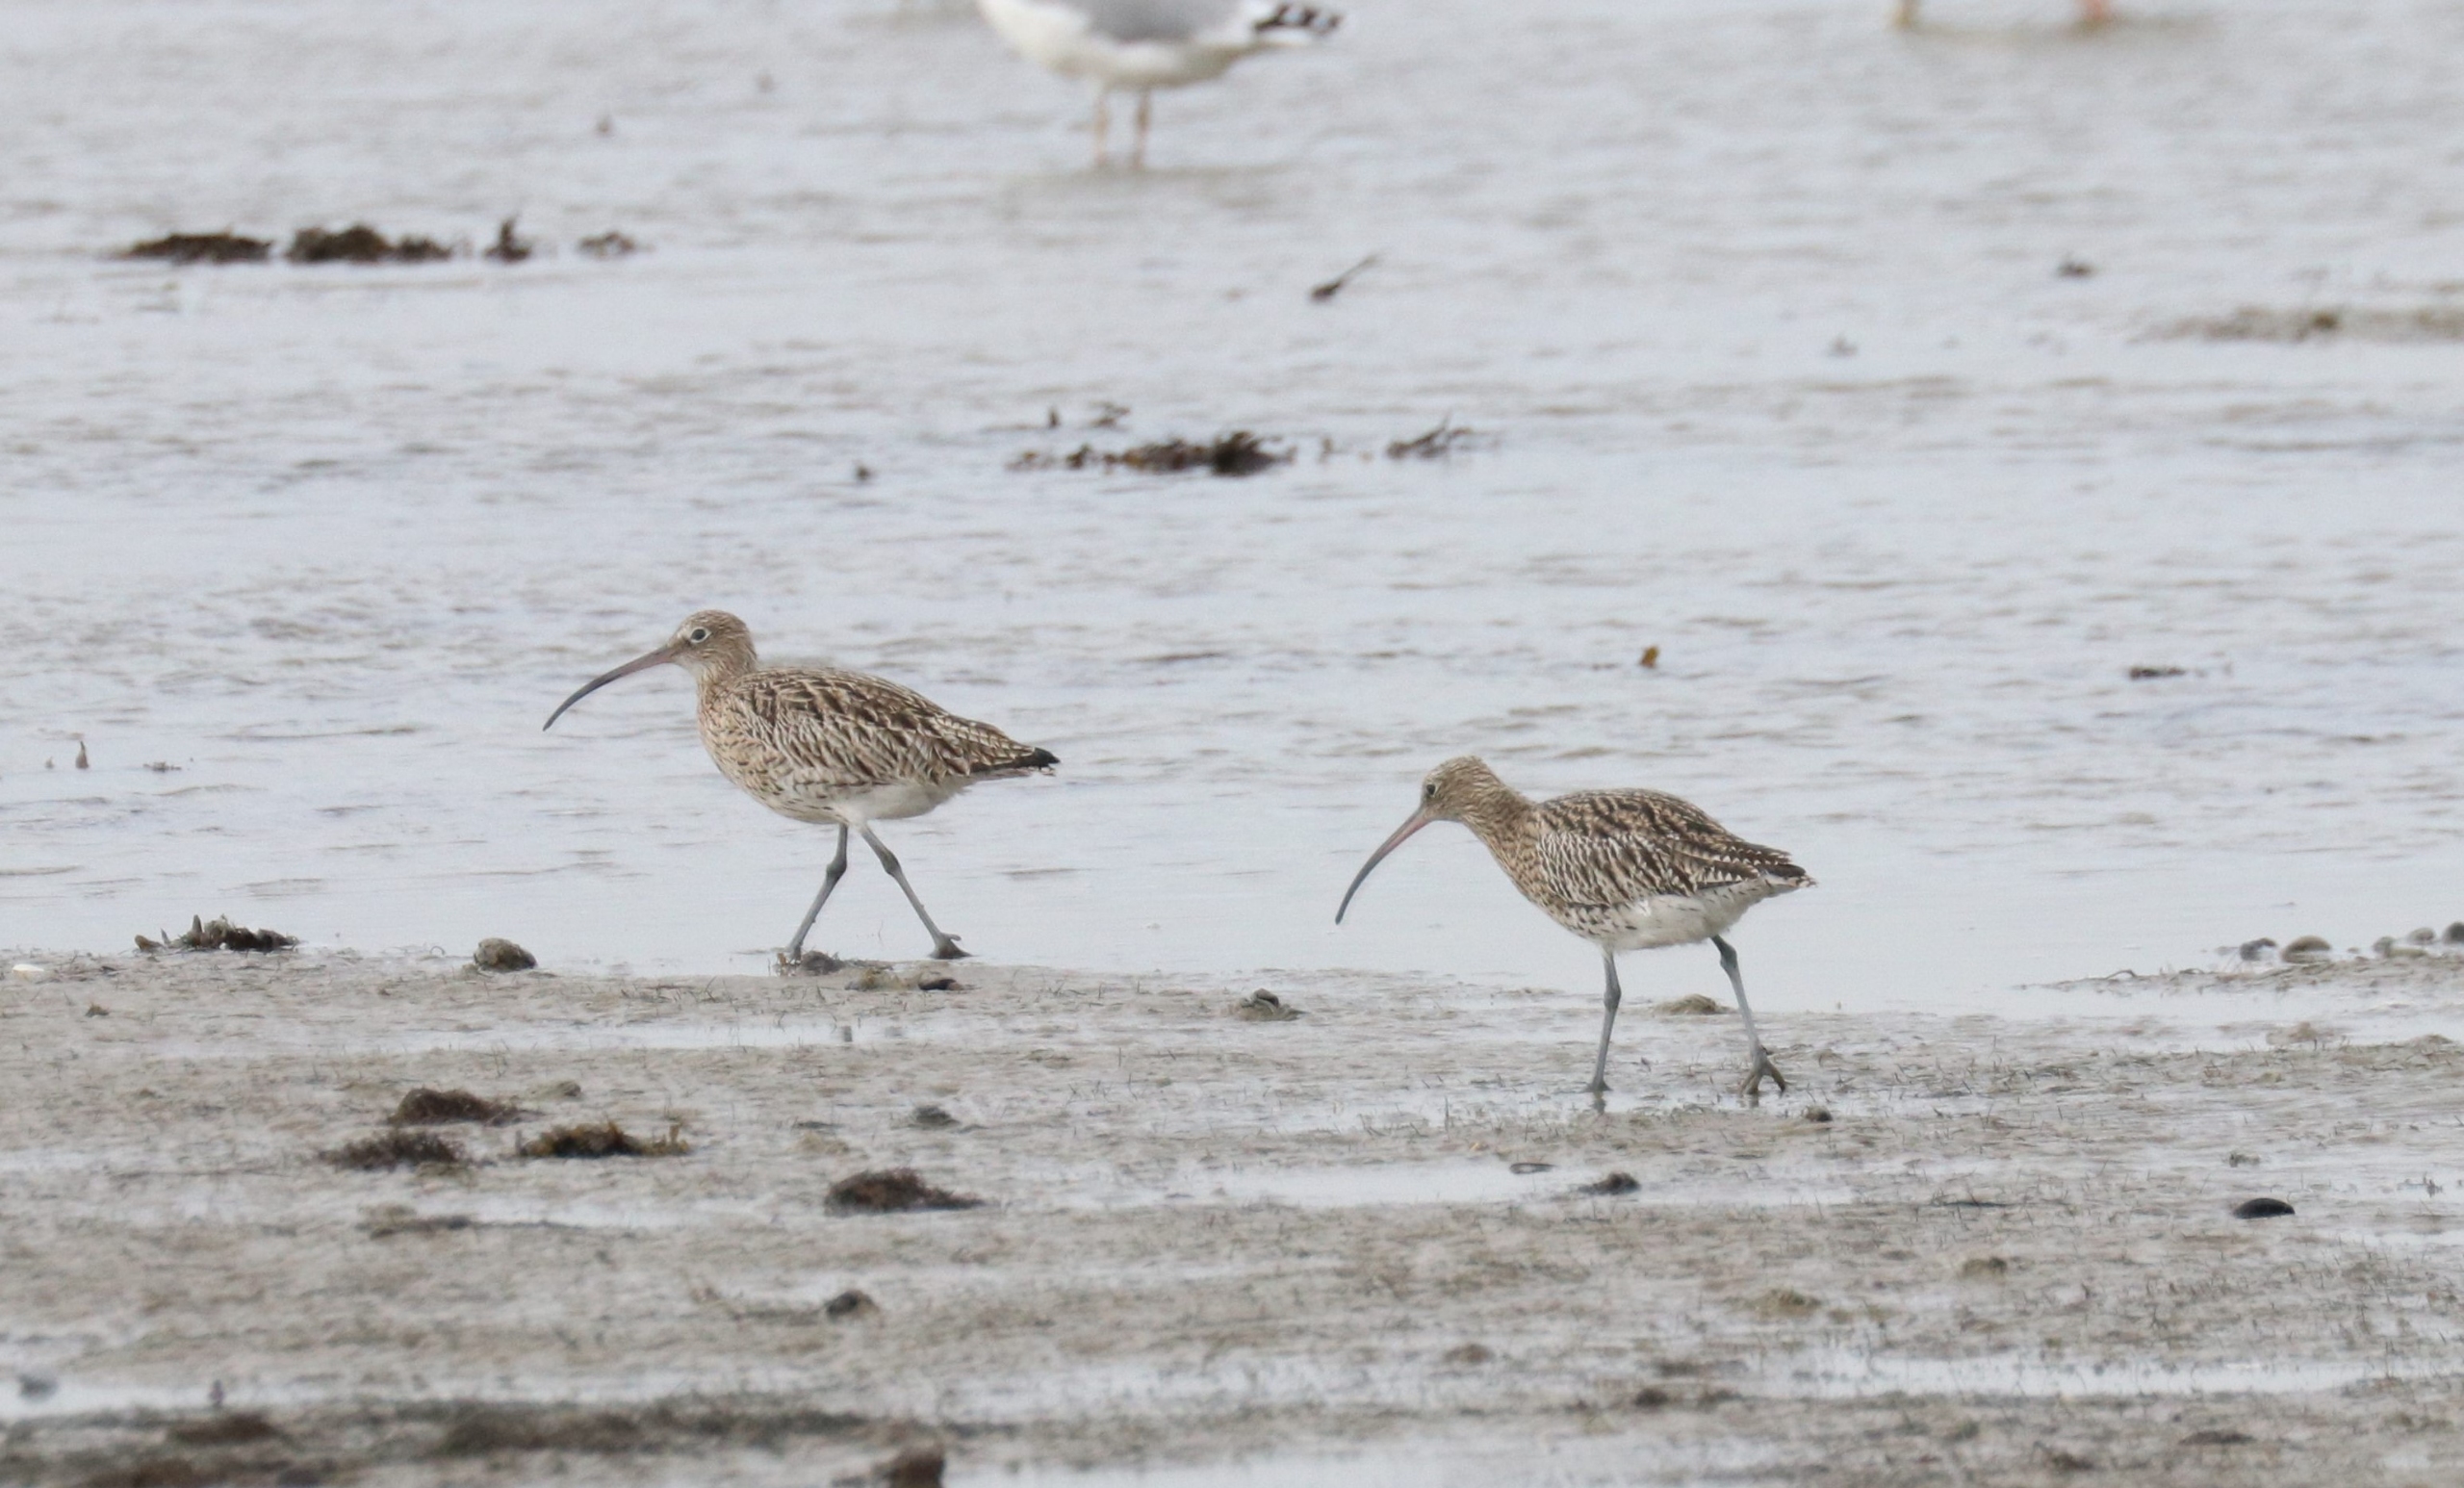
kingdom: Animalia
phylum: Chordata
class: Aves
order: Charadriiformes
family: Scolopacidae
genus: Numenius
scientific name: Numenius arquata
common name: Storspove
